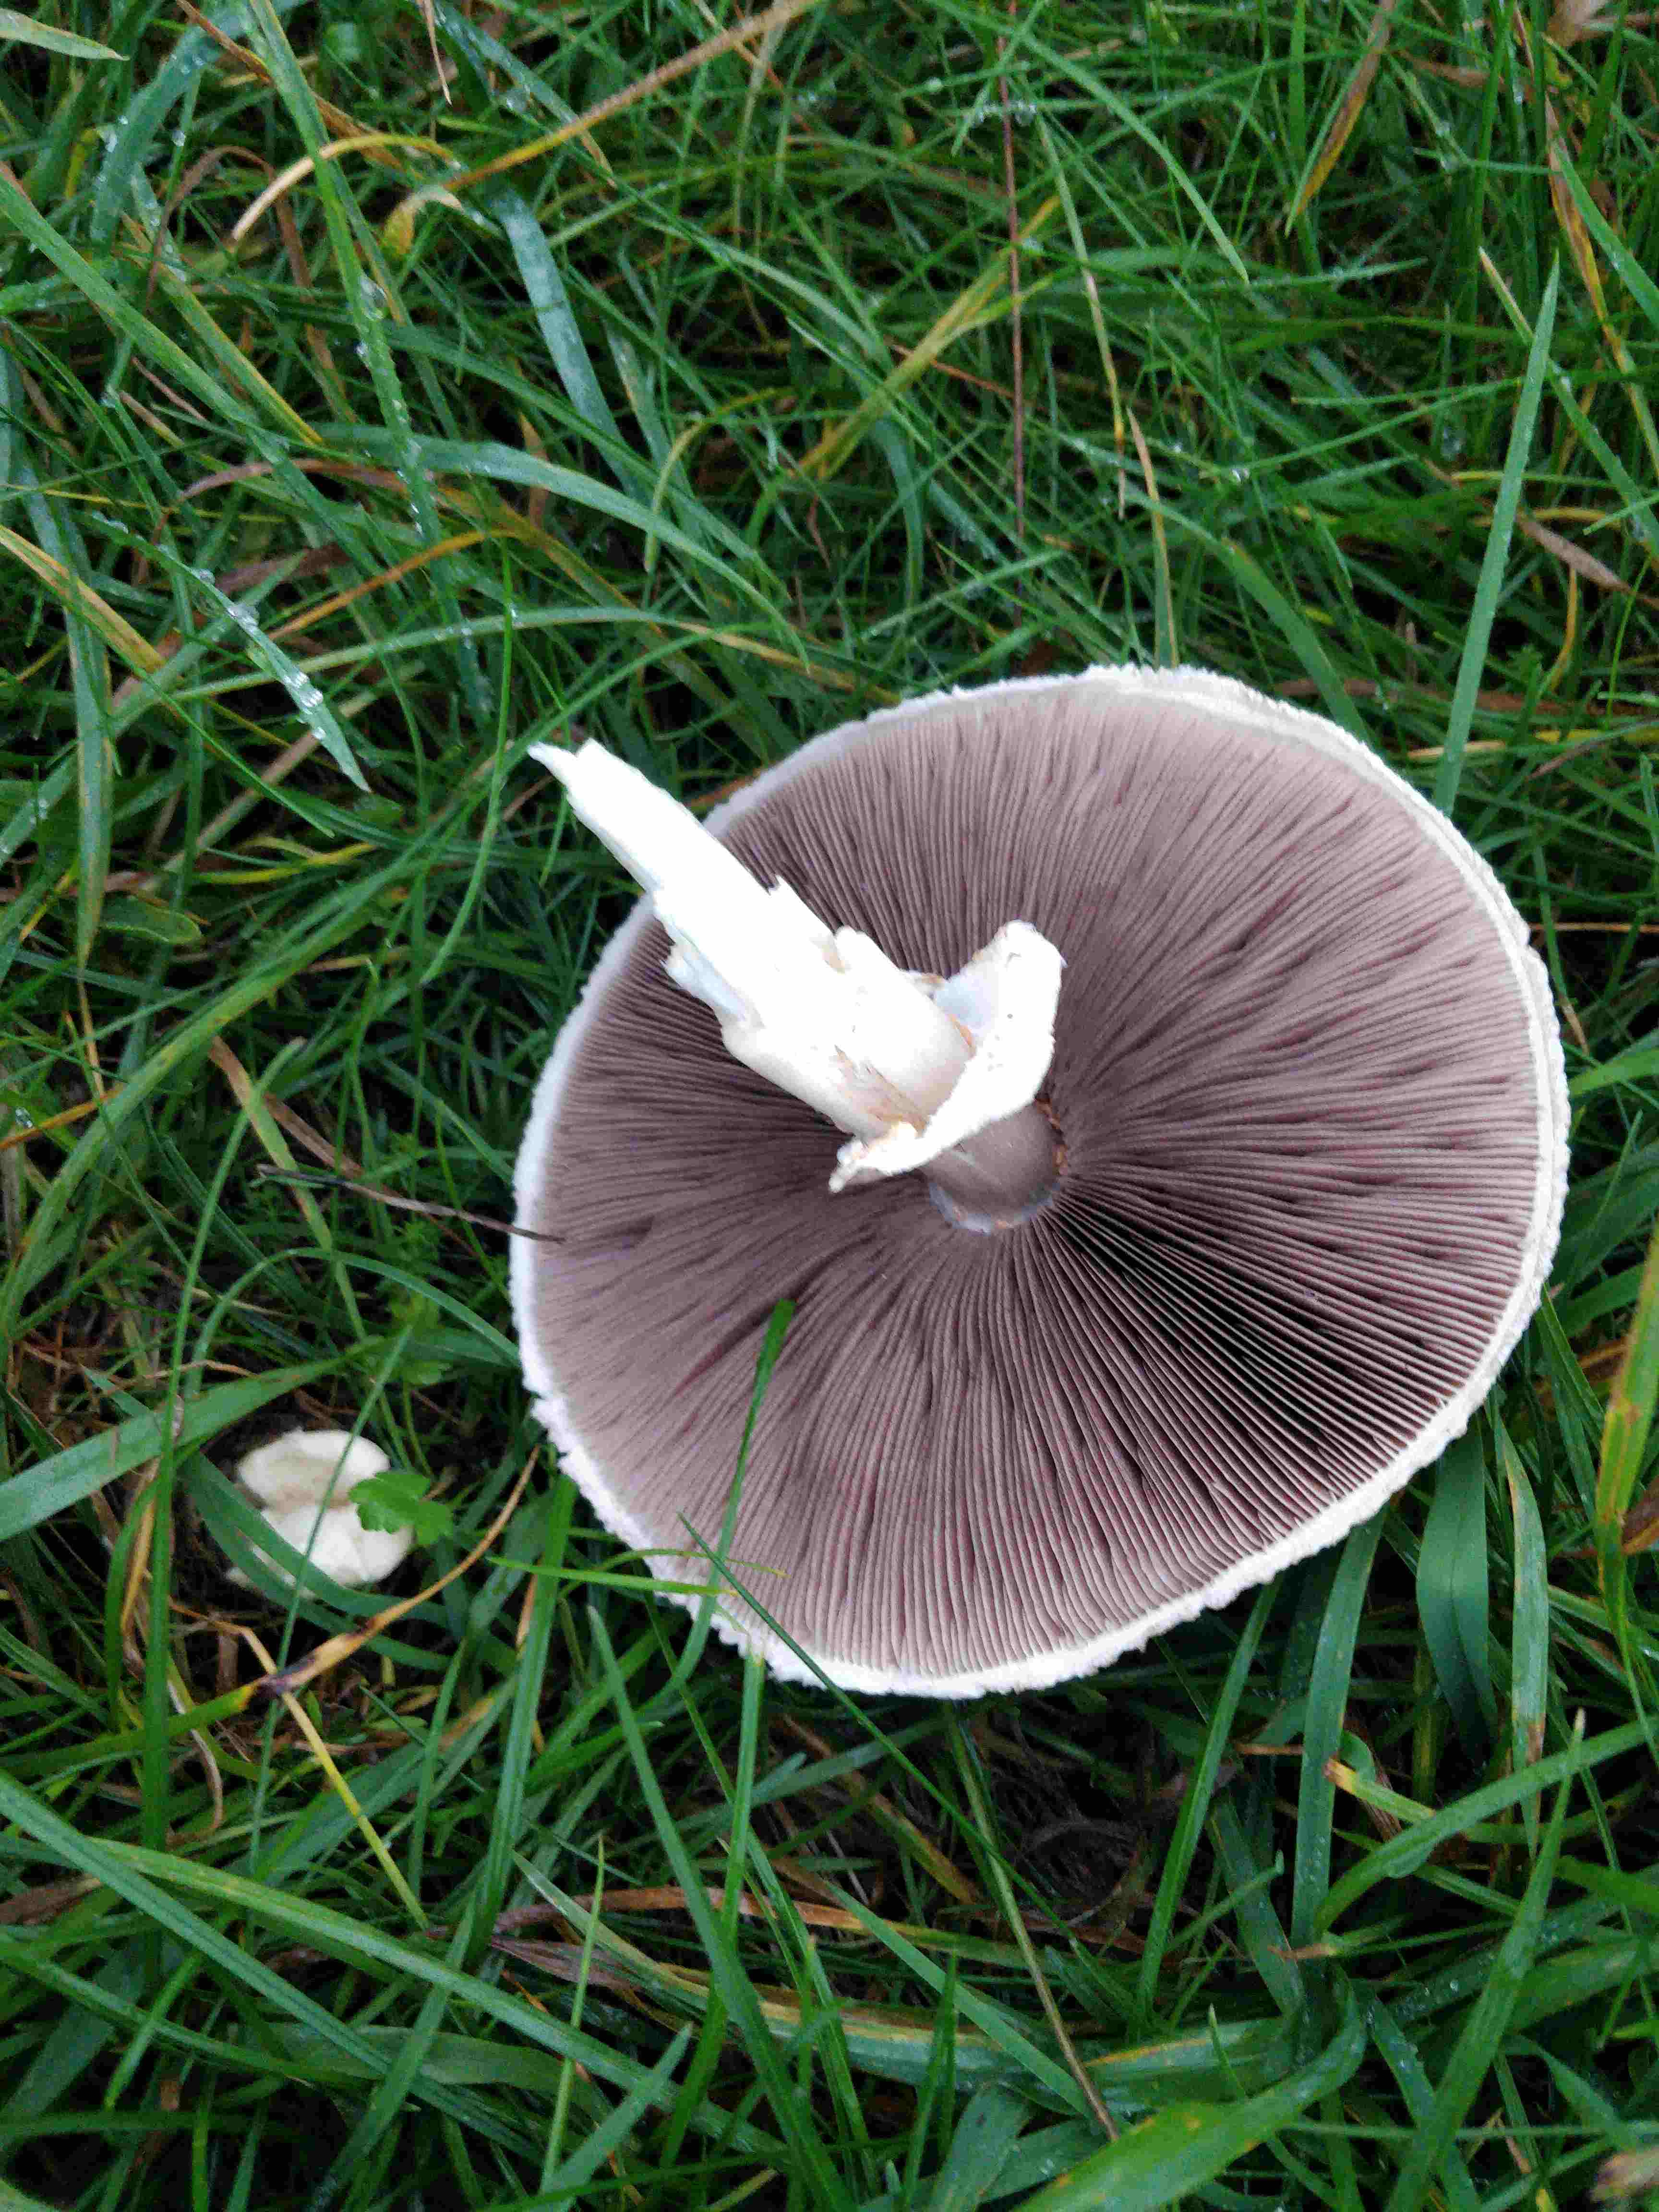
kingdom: Fungi
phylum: Basidiomycota
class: Agaricomycetes
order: Agaricales
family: Agaricaceae
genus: Agaricus
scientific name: Agaricus campestris
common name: mark-champignon
